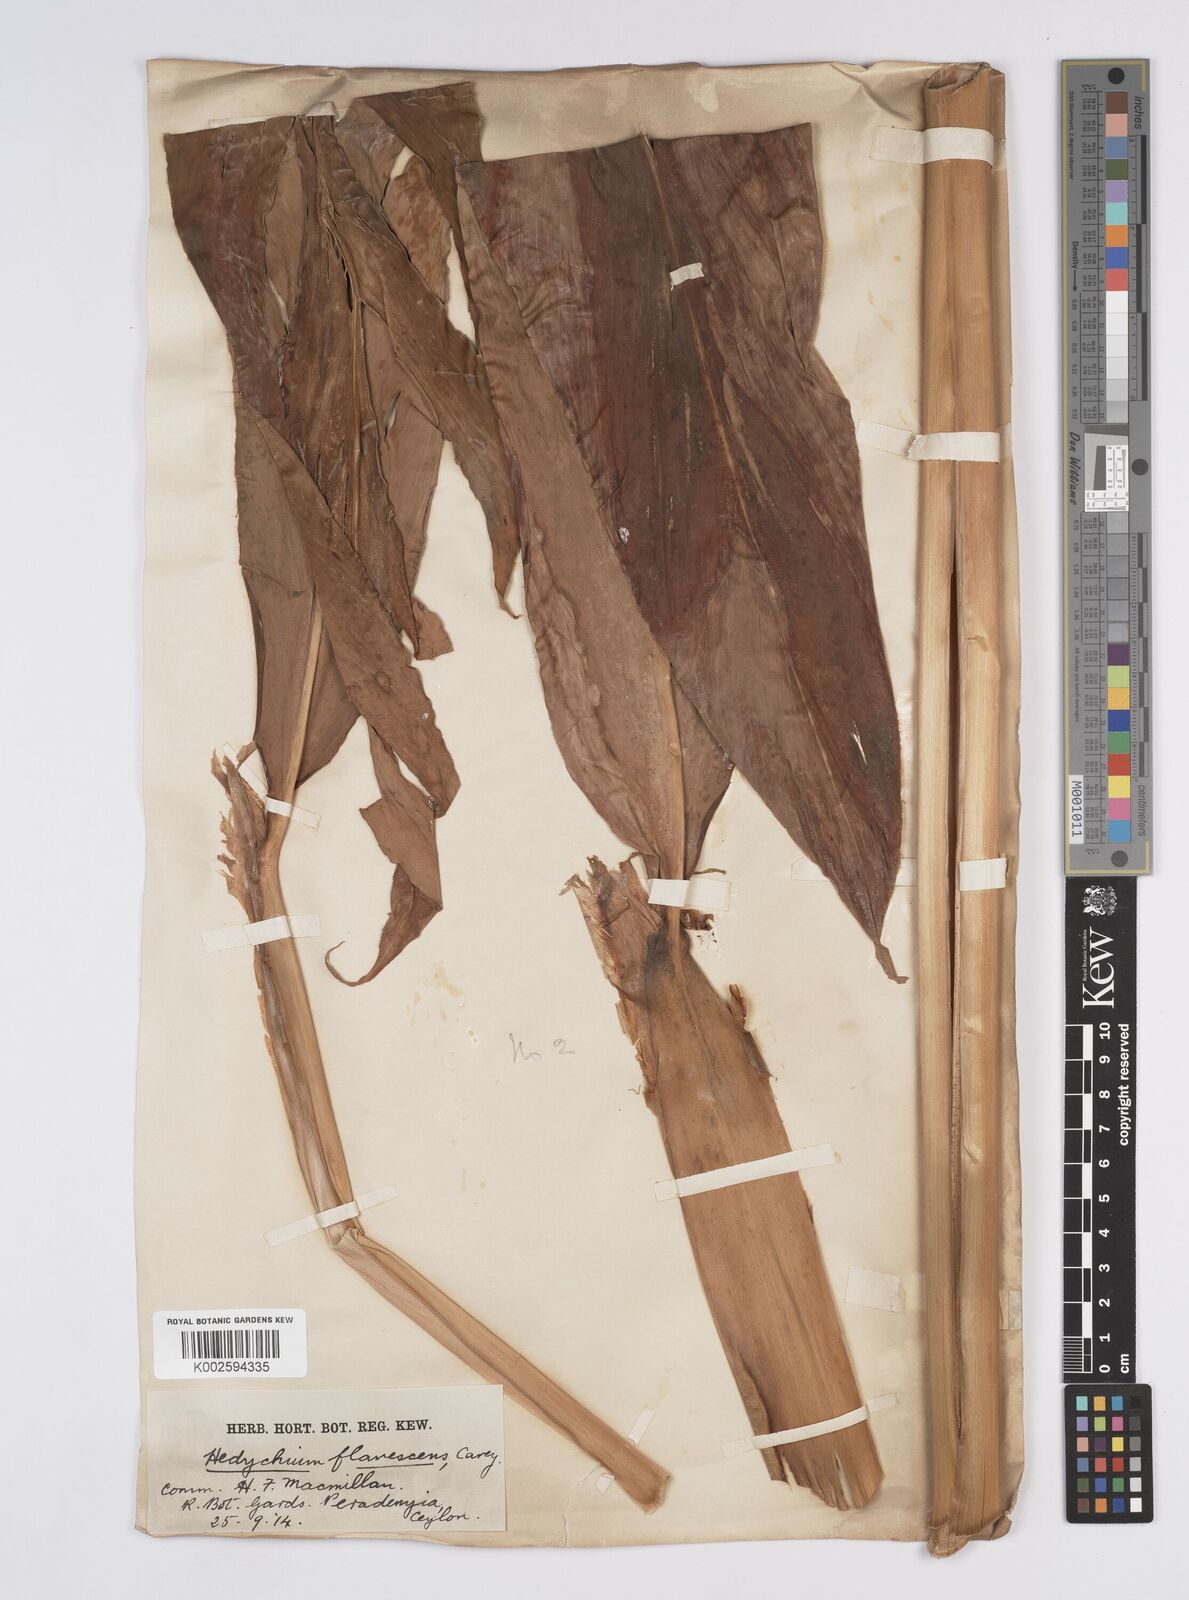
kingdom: Plantae
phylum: Tracheophyta
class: Liliopsida
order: Zingiberales
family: Zingiberaceae
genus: Hedychium
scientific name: Hedychium flavescens
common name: Yellow ginger
